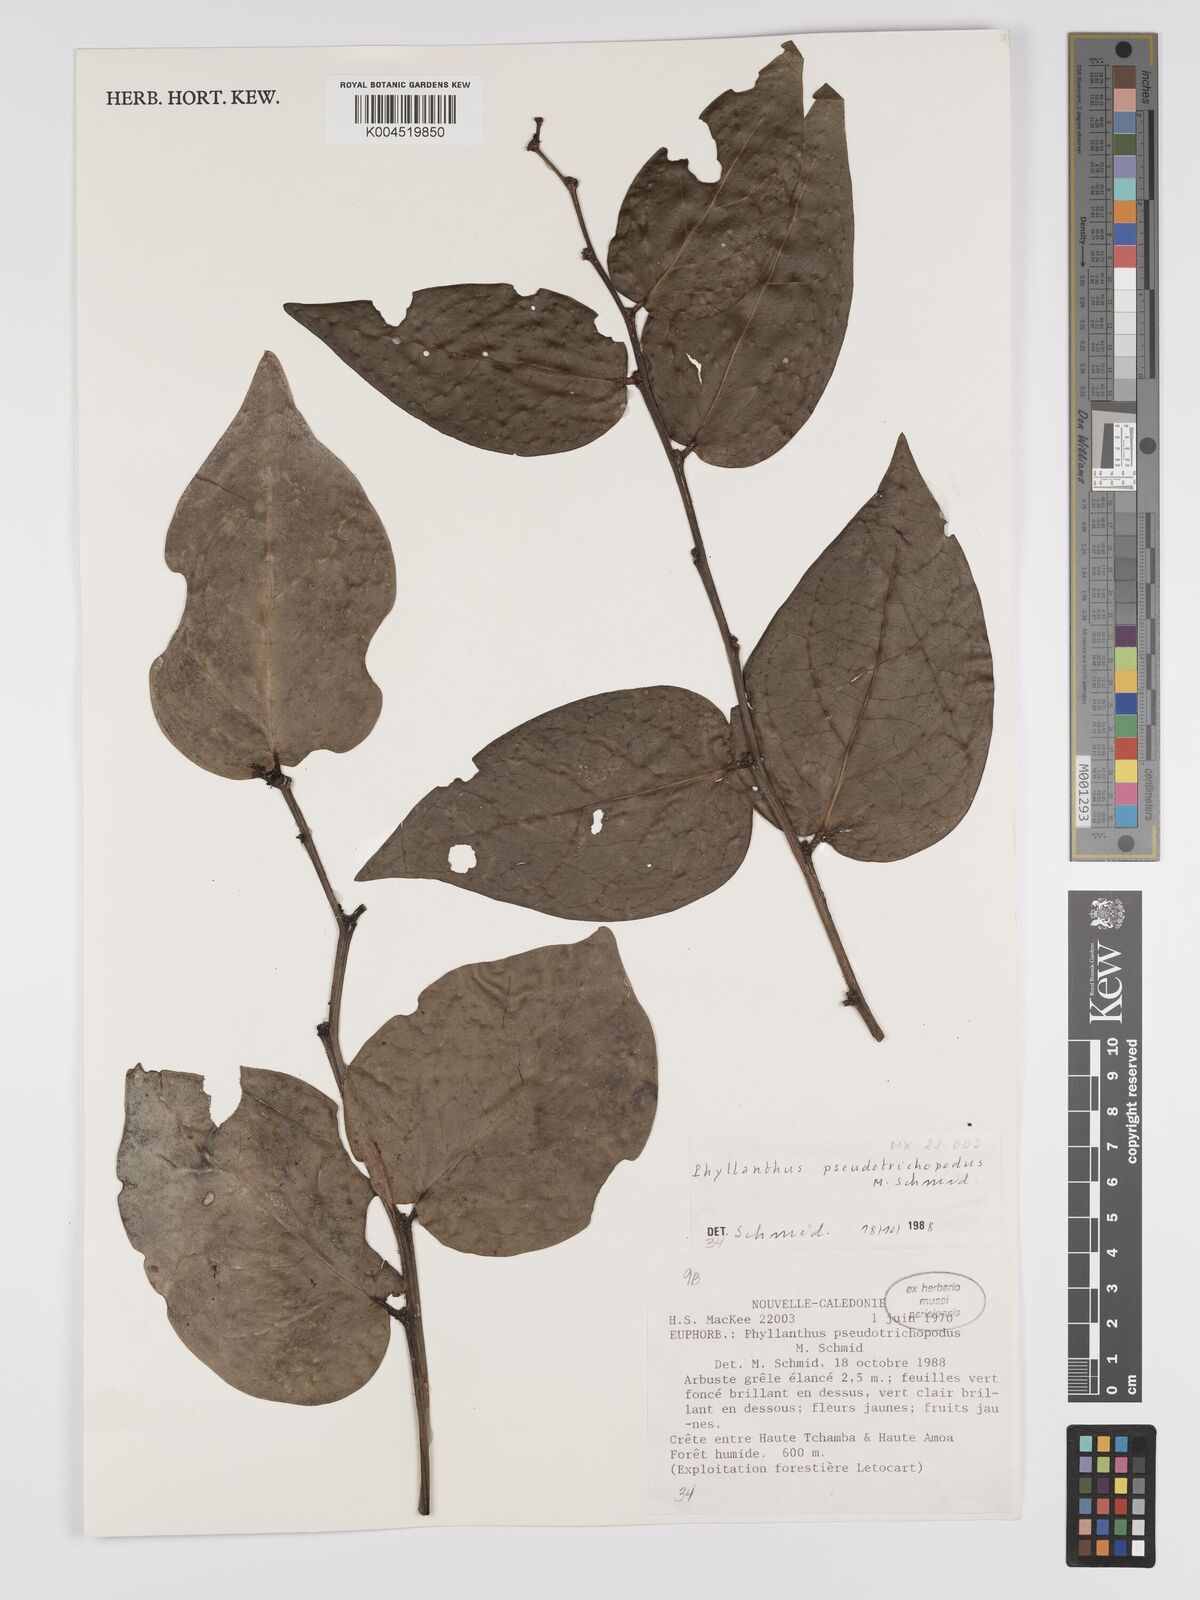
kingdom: Plantae
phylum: Tracheophyta
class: Magnoliopsida
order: Malpighiales
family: Phyllanthaceae
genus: Phyllanthus
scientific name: Phyllanthus pseudotrichopodus
